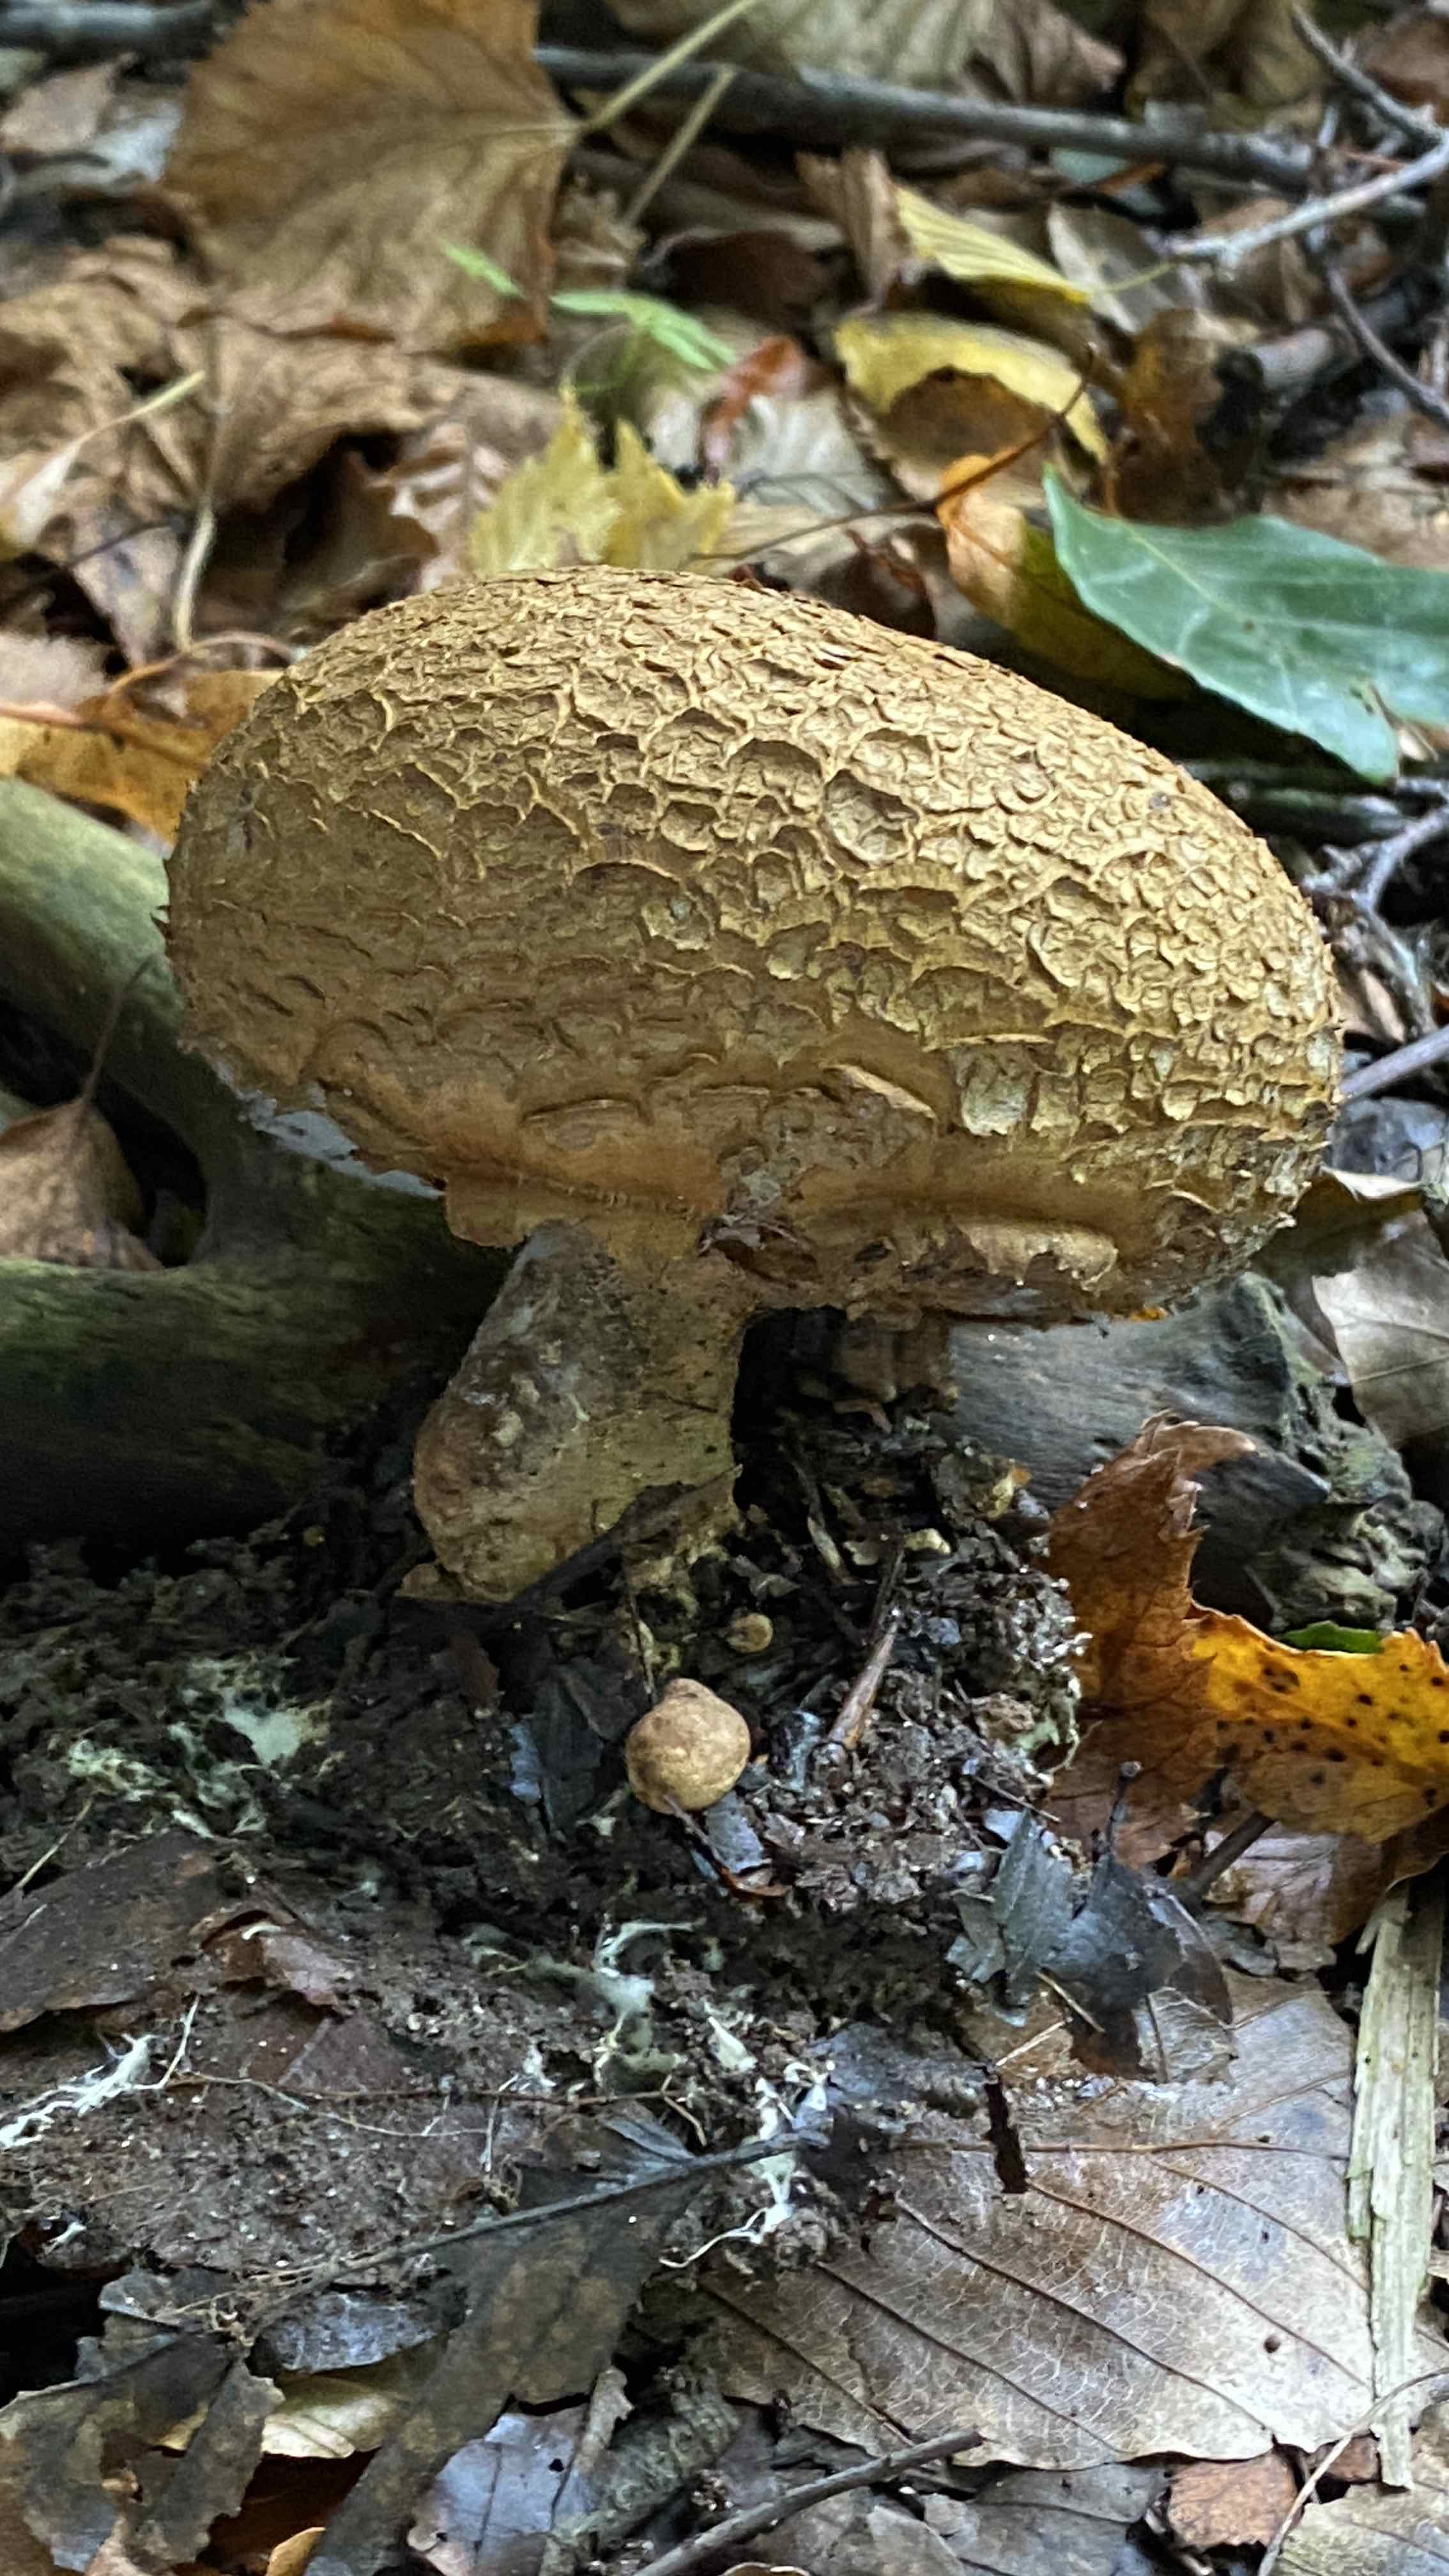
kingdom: Fungi
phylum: Basidiomycota
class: Agaricomycetes
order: Boletales
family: Sclerodermataceae
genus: Scleroderma
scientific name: Scleroderma citrinum
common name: almindelig bruskbold
